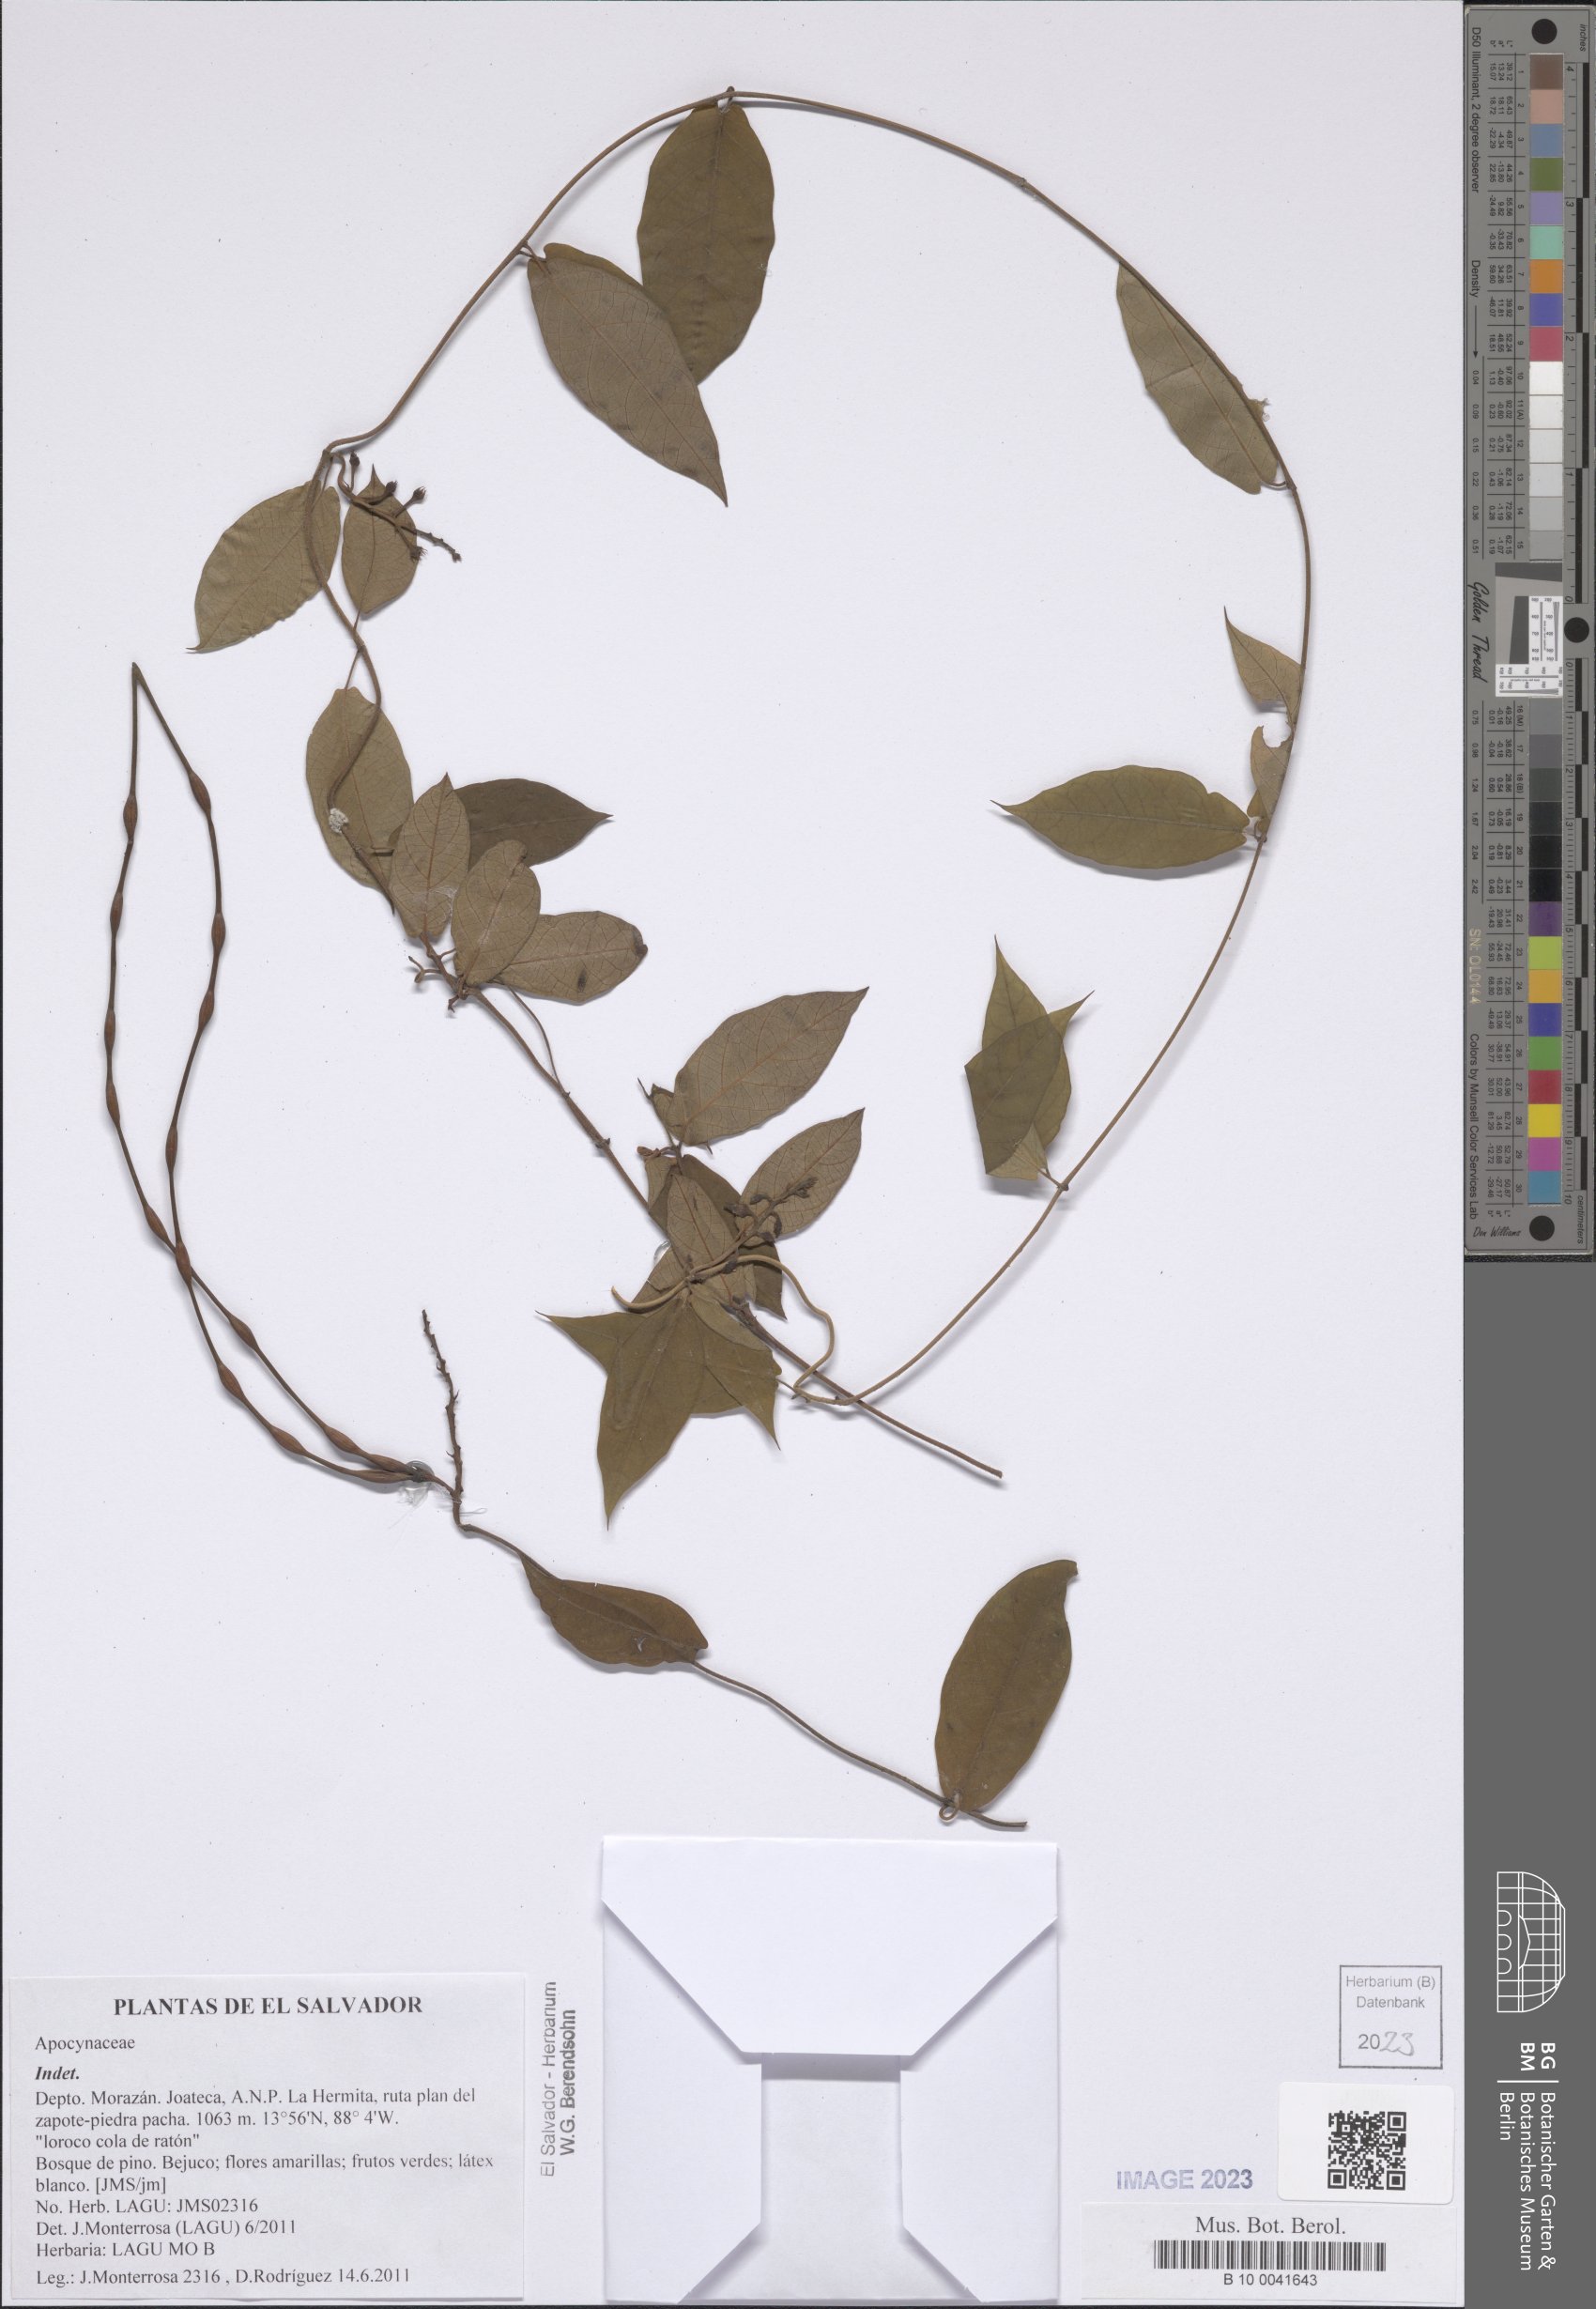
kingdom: Plantae
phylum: Tracheophyta
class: Magnoliopsida
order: Gentianales
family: Apocynaceae
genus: Mandevilla
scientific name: Mandevilla subsagittata
